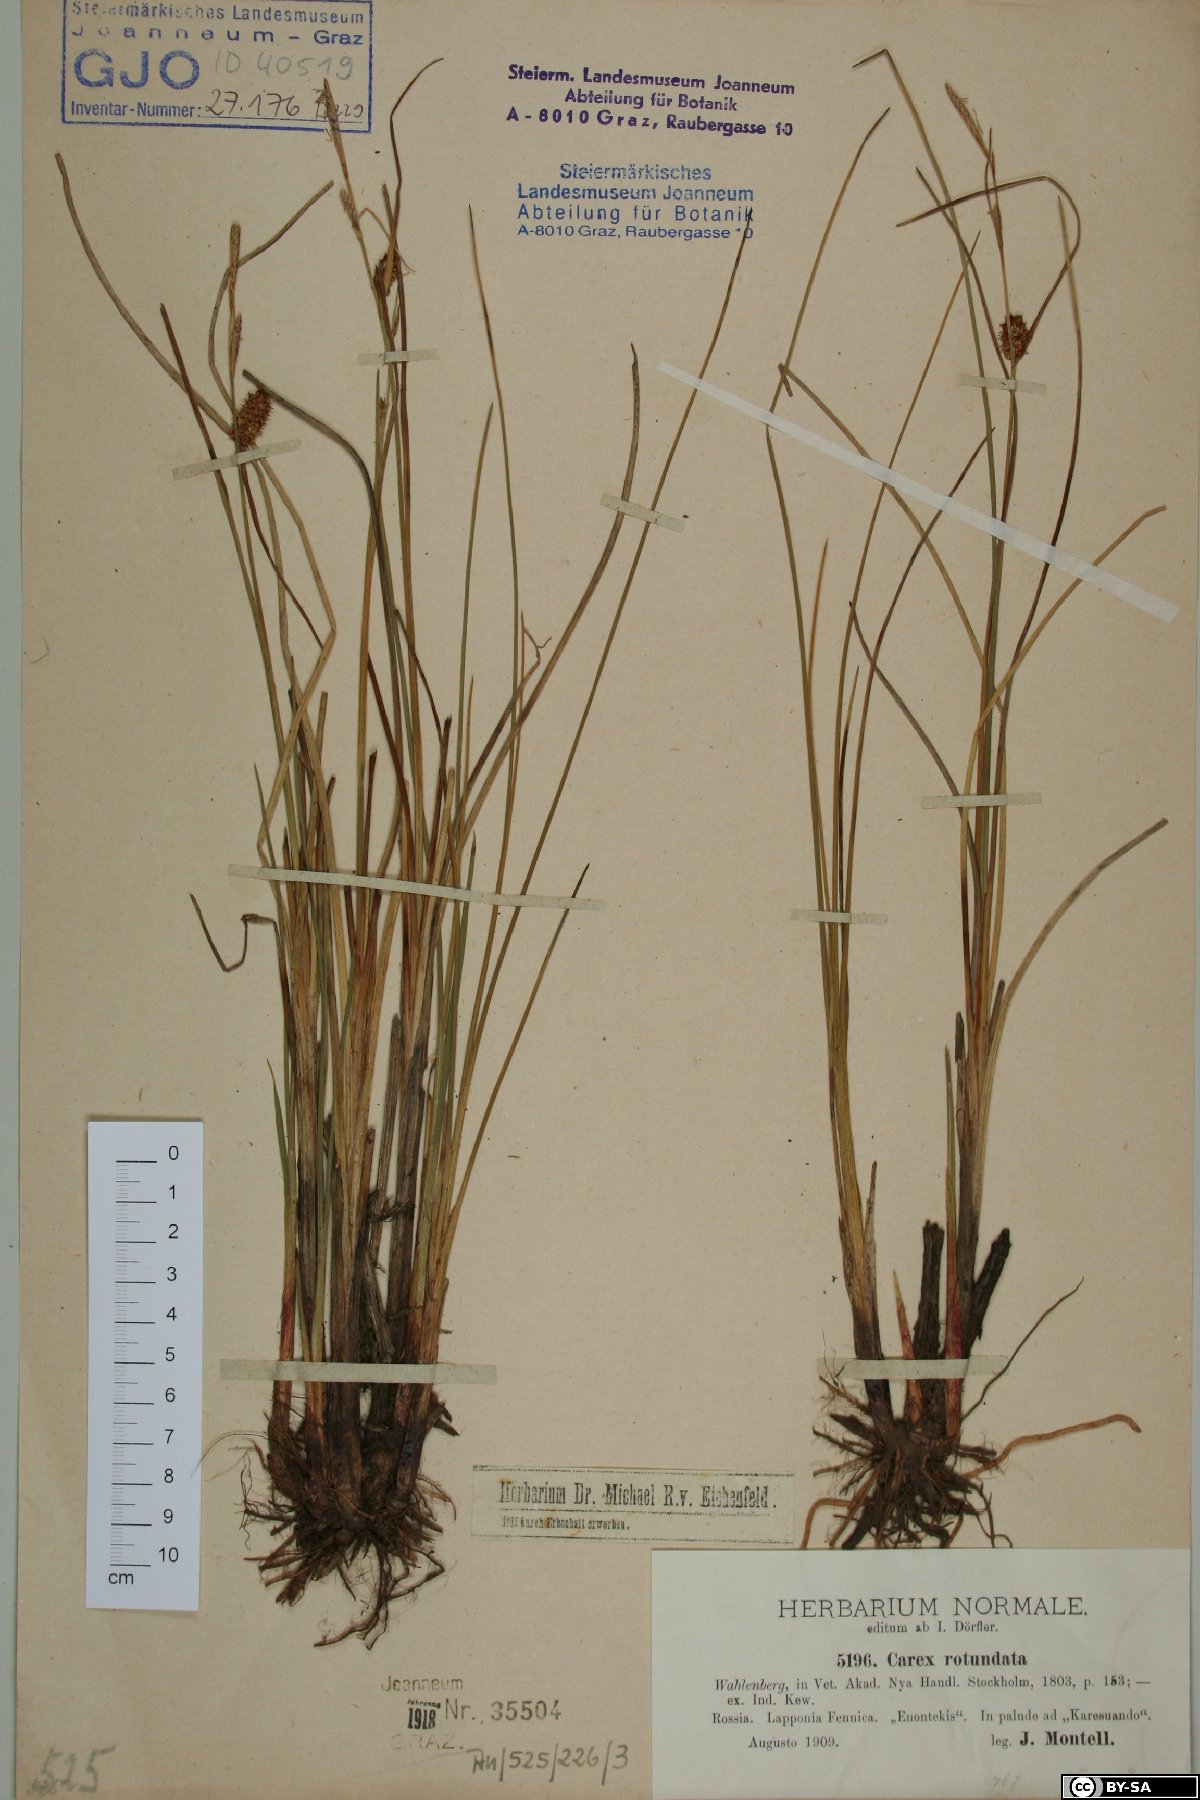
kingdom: Plantae
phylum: Tracheophyta
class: Liliopsida
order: Poales
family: Cyperaceae
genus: Carex
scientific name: Carex rotundata
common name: Round-fruited sedge
